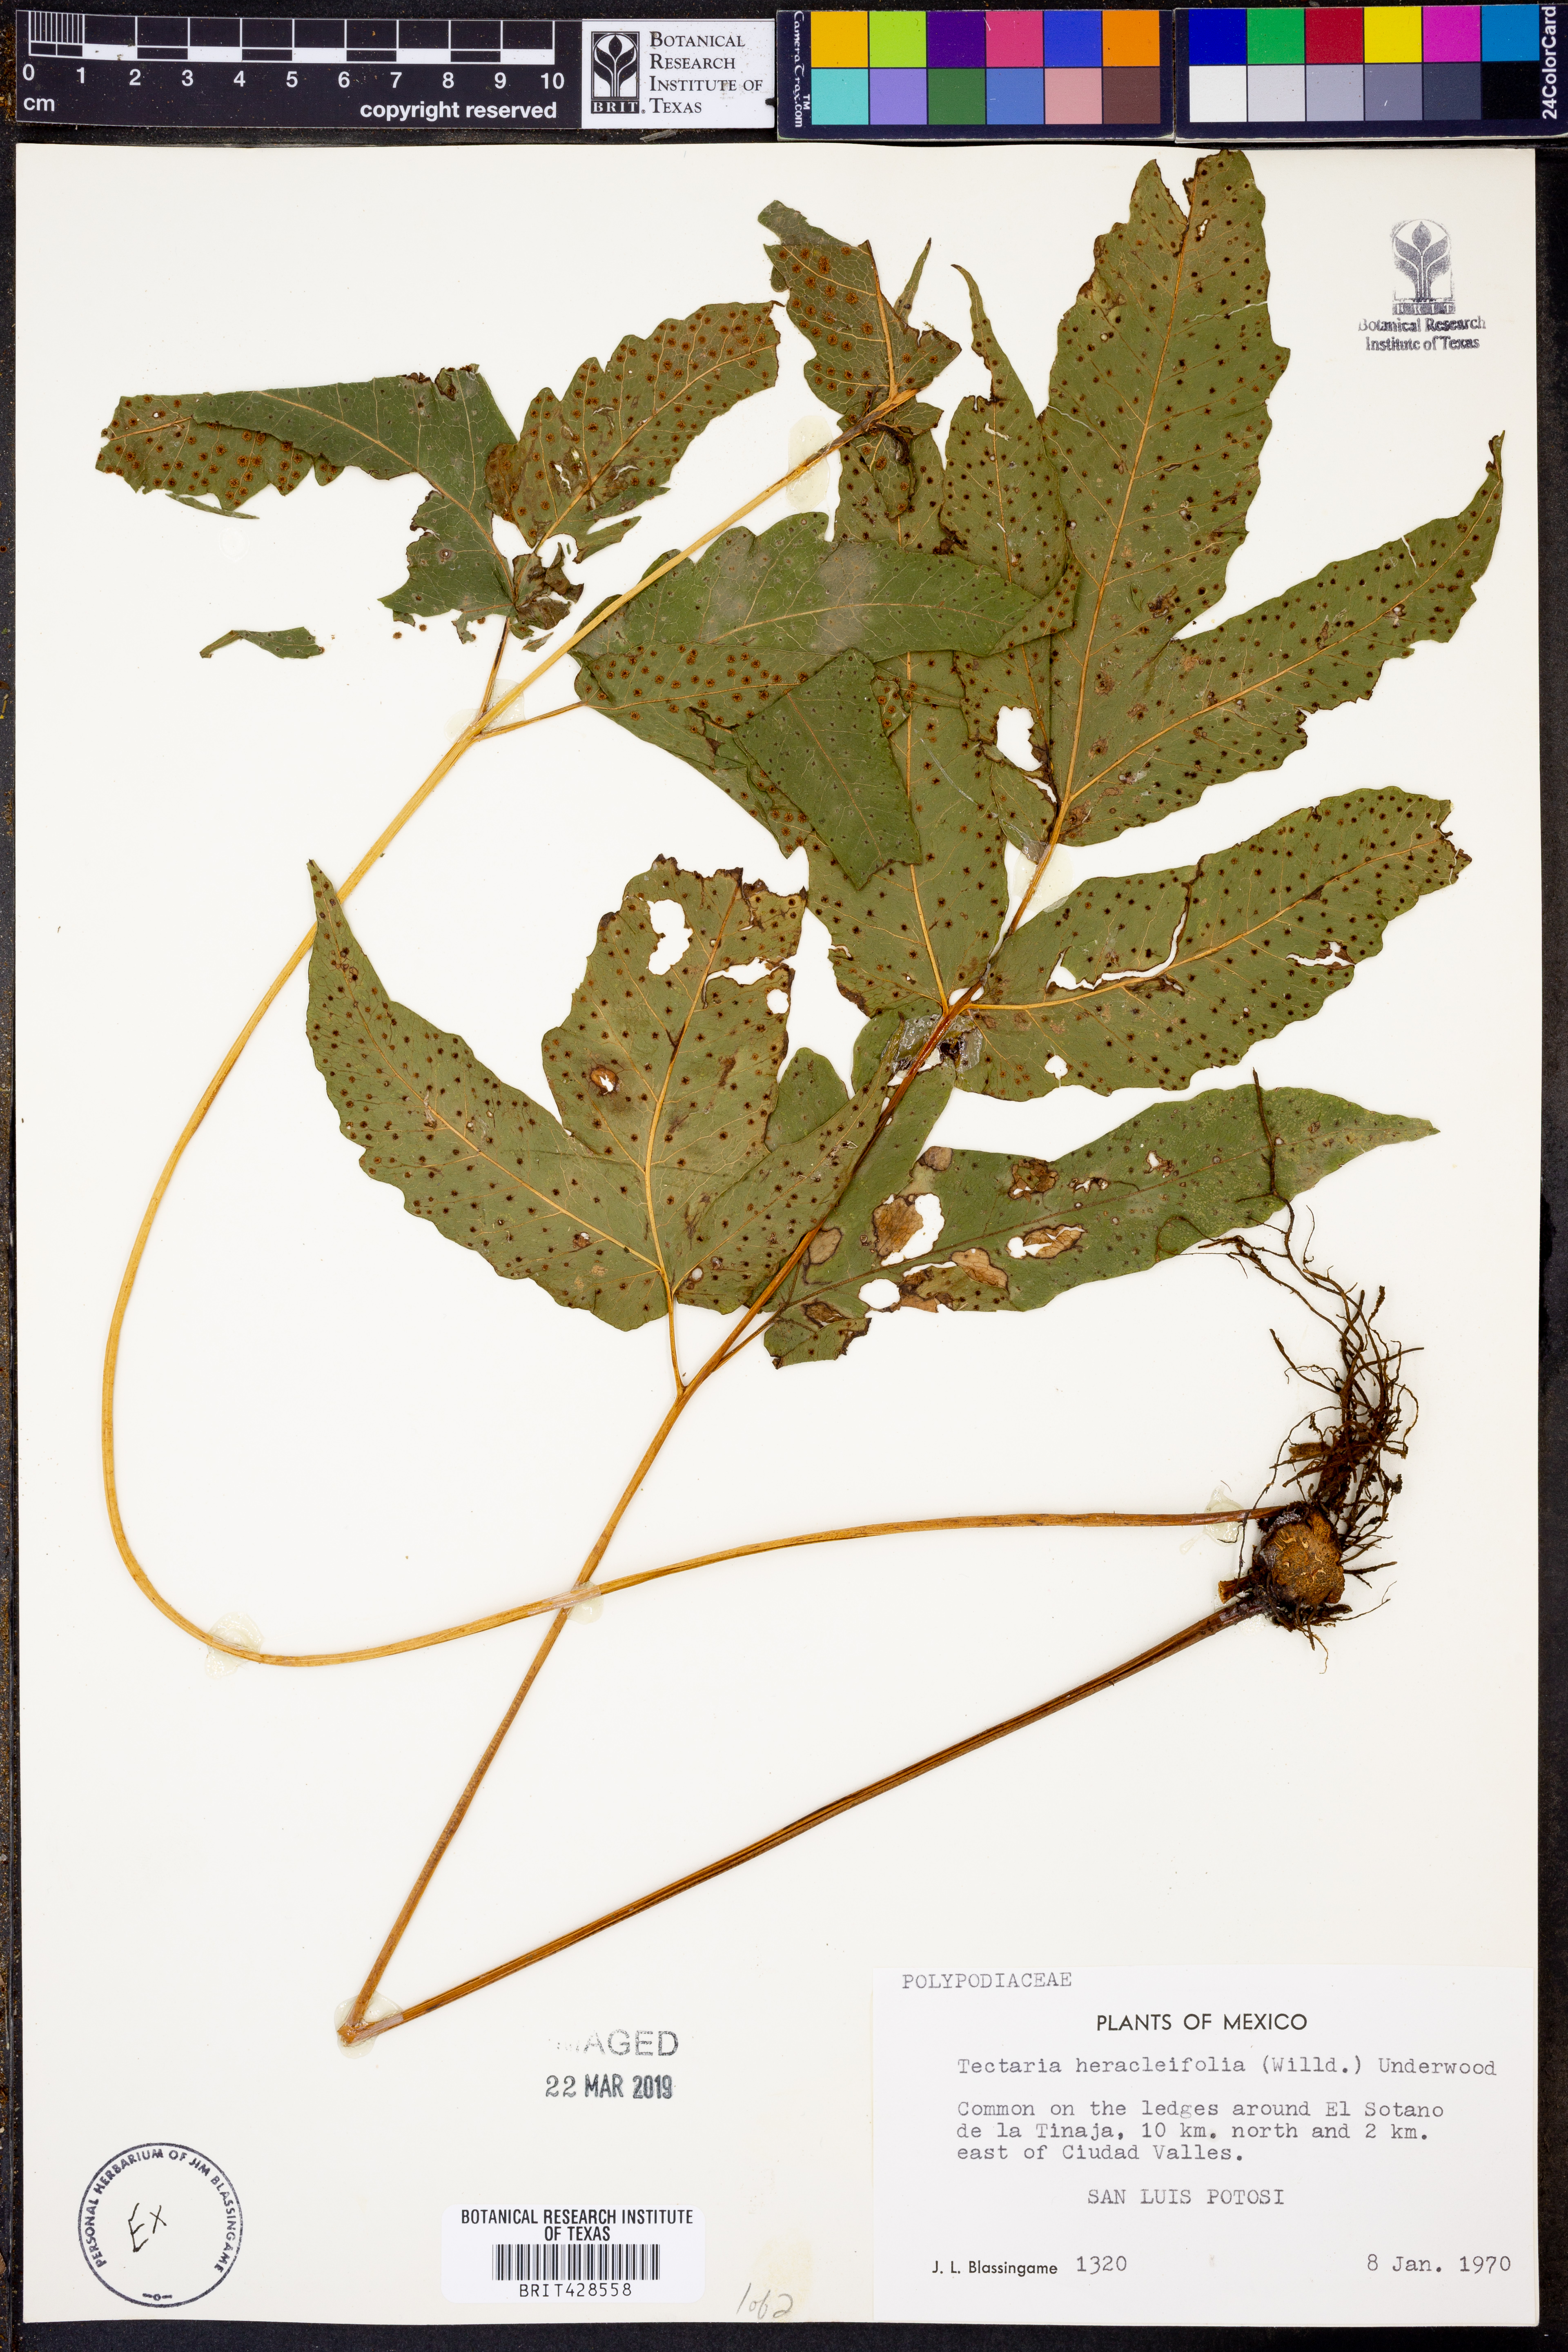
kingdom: Plantae
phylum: Tracheophyta
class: Polypodiopsida
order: Polypodiales
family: Tectariaceae
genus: Tectaria
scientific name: Tectaria heracleifolia
